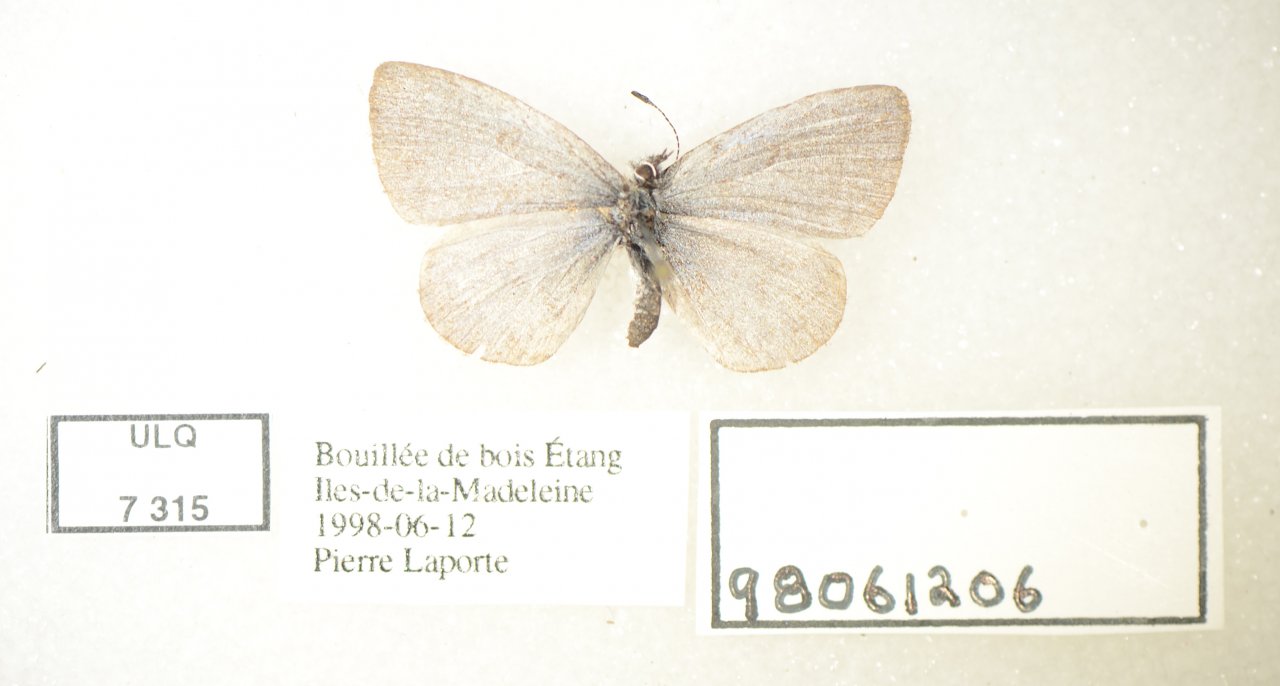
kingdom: Animalia
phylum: Arthropoda
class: Insecta
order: Lepidoptera
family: Lycaenidae
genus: Celastrina
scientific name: Celastrina lucia
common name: Northern Spring Azure
